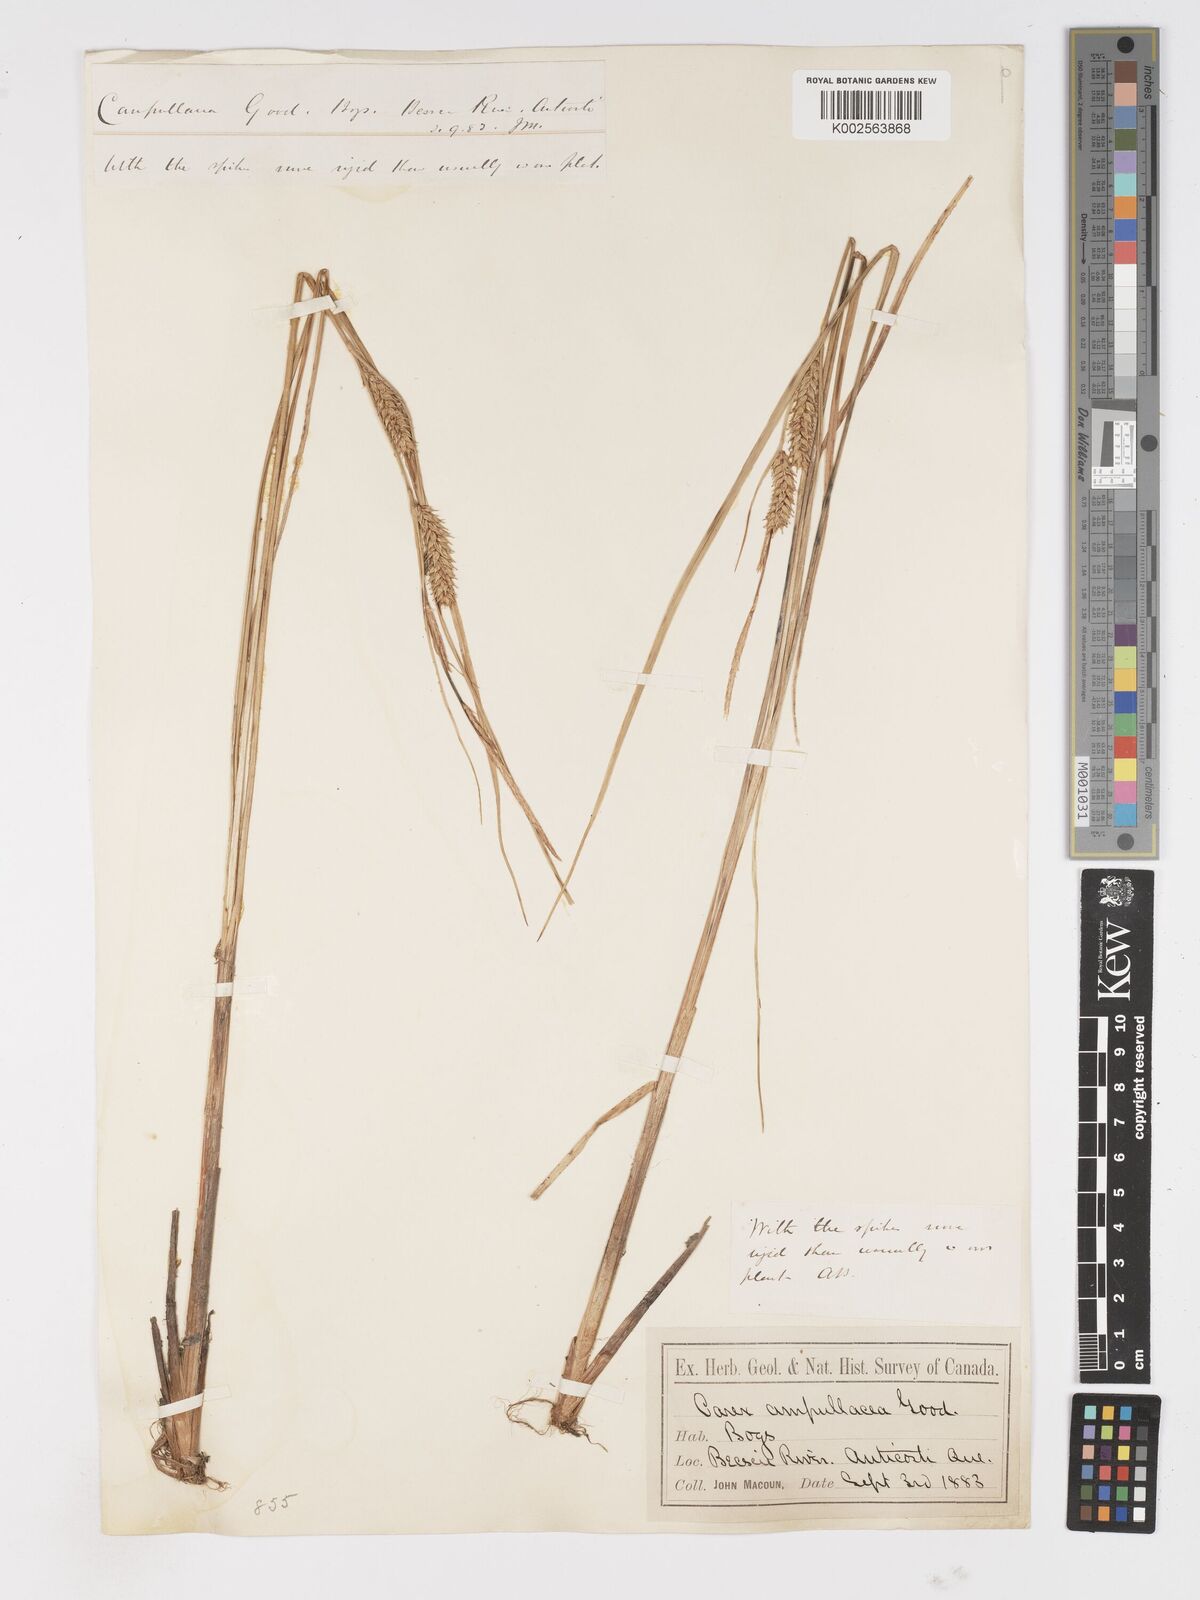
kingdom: Plantae
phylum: Tracheophyta
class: Liliopsida
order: Poales
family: Cyperaceae
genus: Carex
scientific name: Carex rostrata
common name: Bottle sedge
